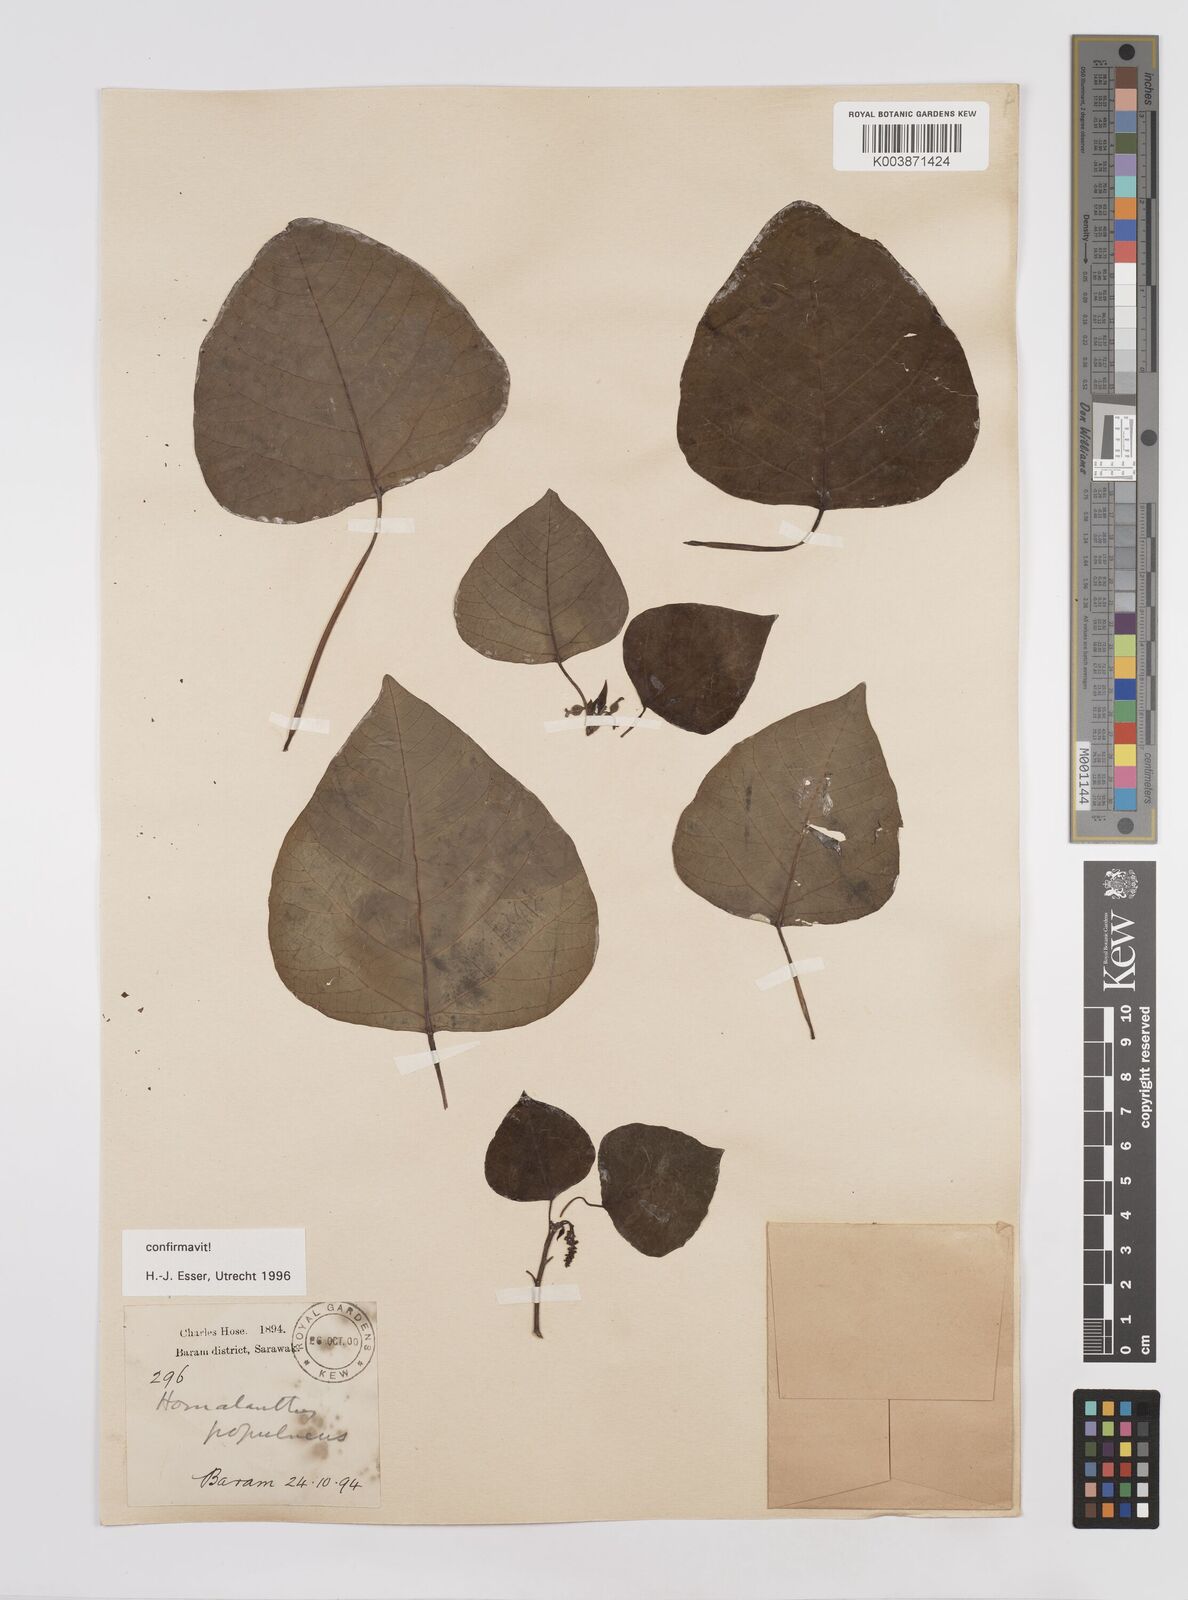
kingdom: Plantae
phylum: Tracheophyta
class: Magnoliopsida
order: Malpighiales
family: Euphorbiaceae
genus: Homalanthus
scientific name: Homalanthus populneus
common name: Spurge
